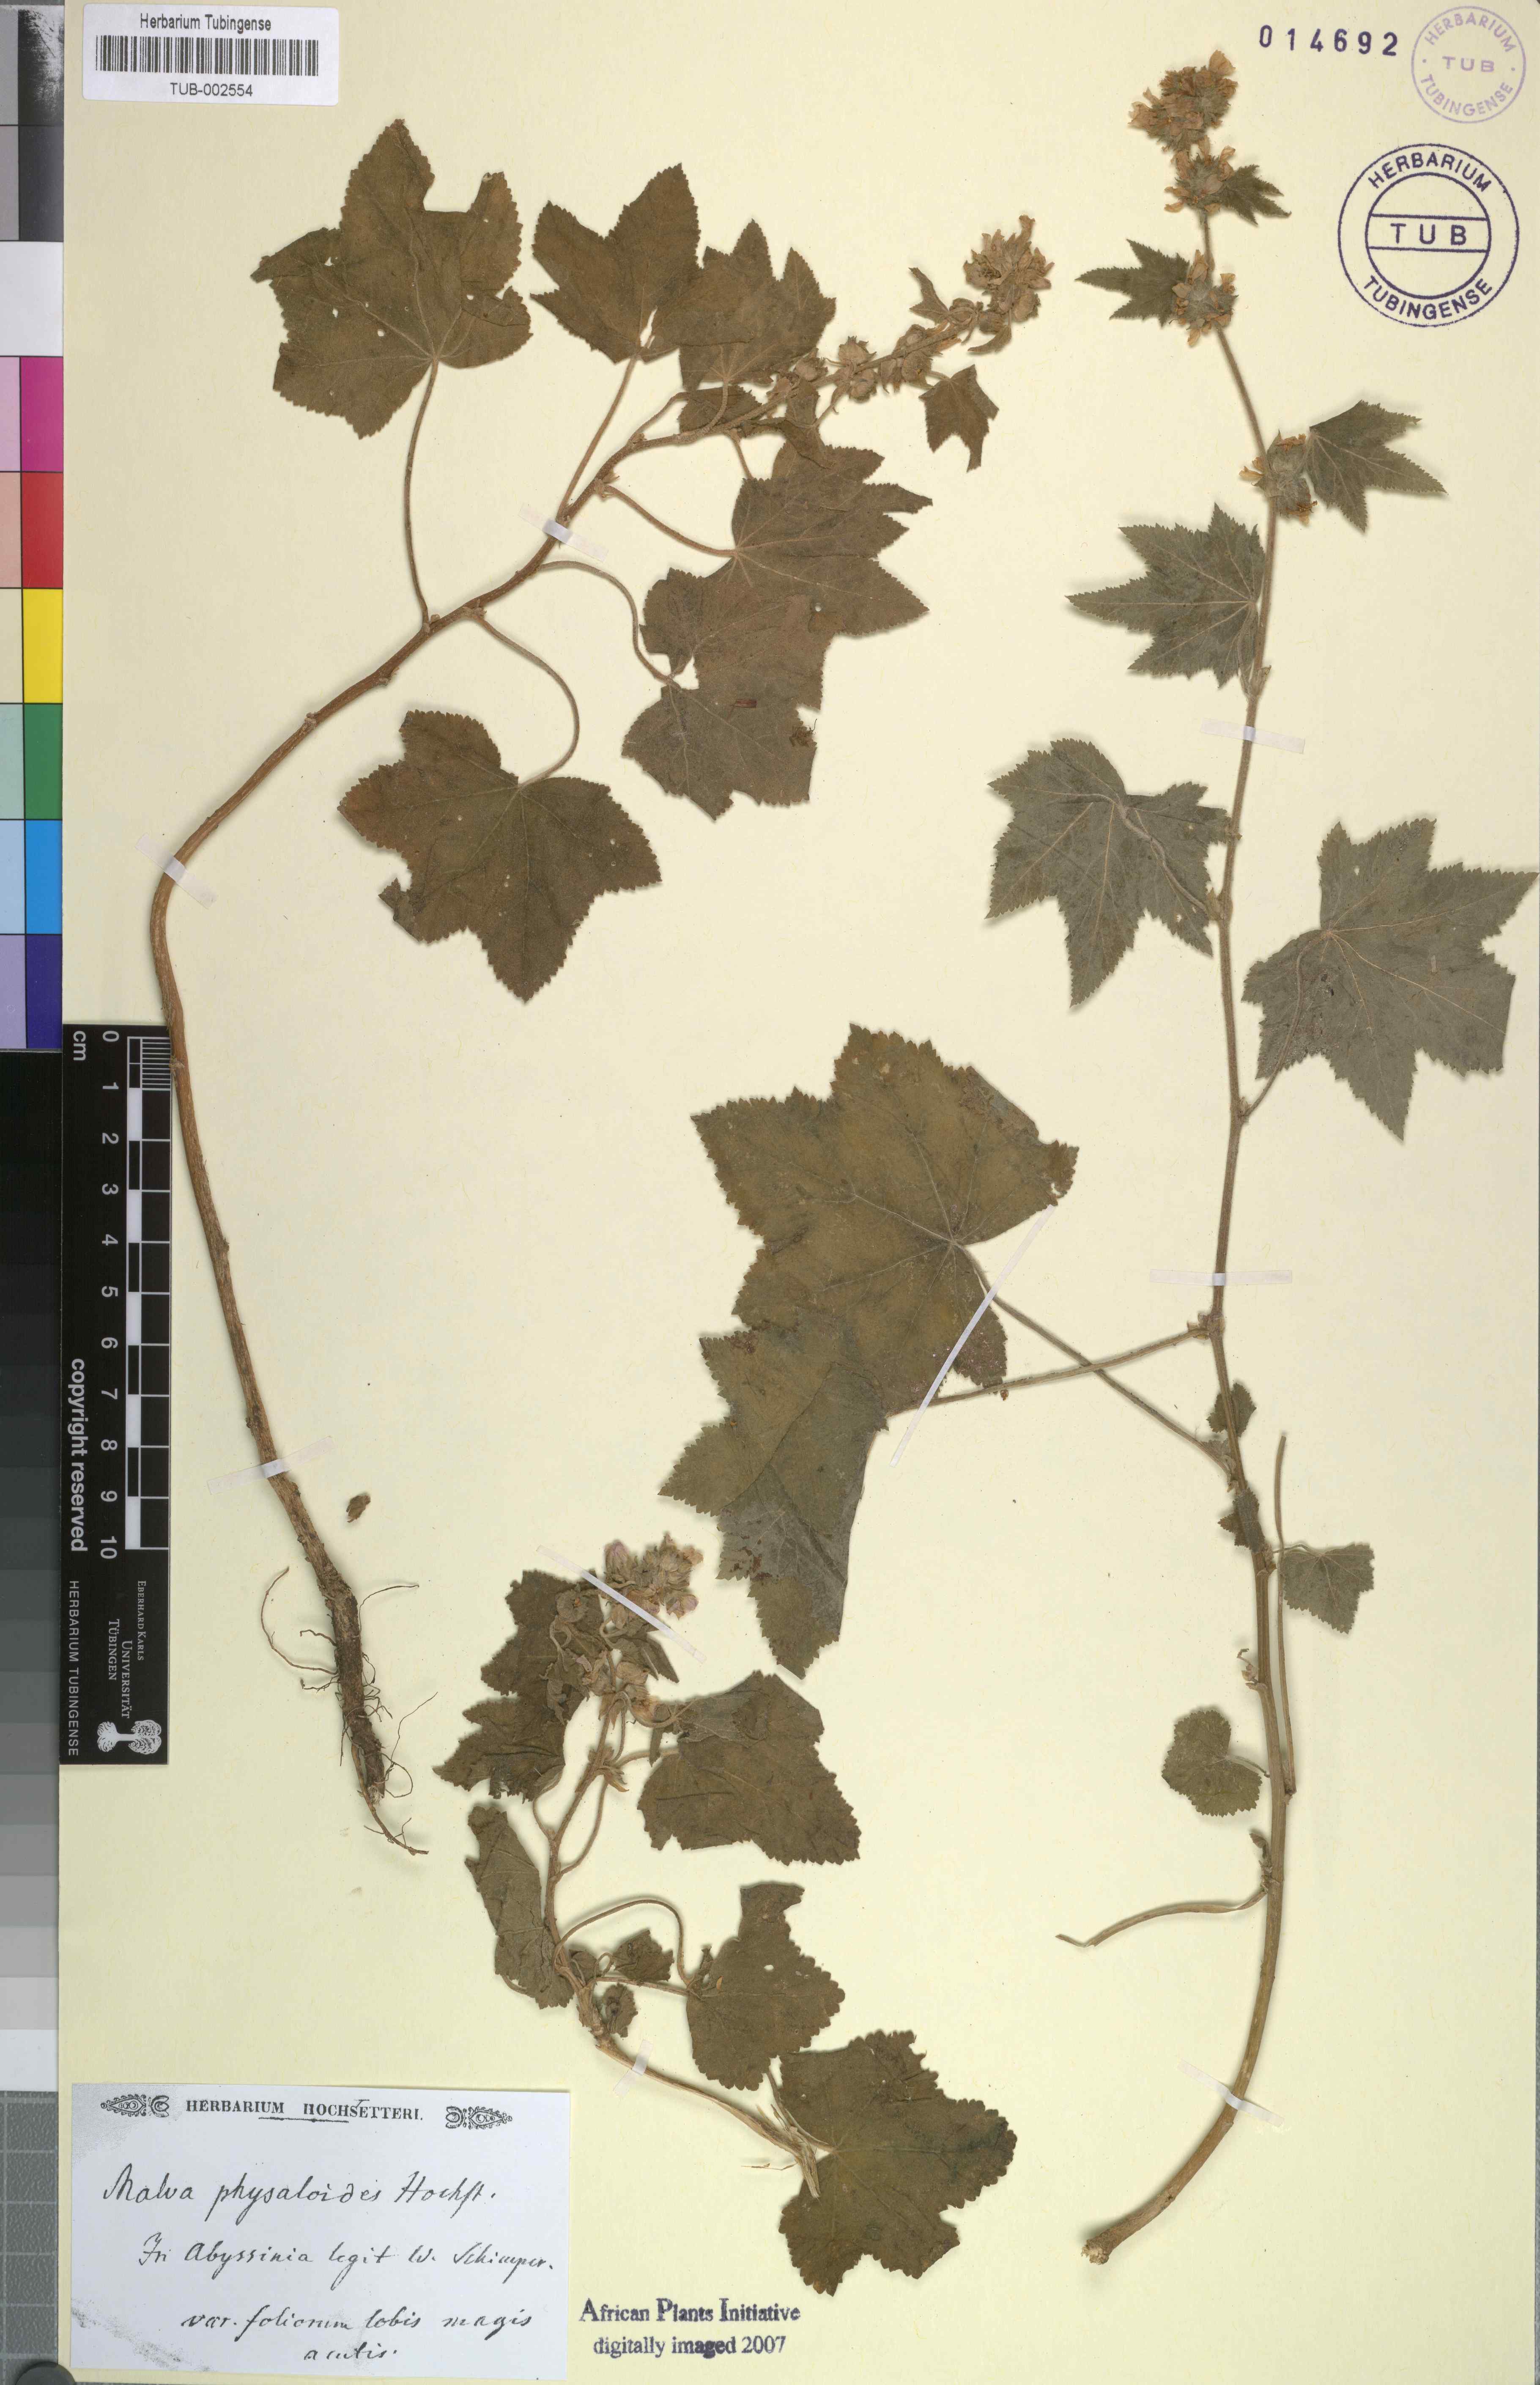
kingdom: Plantae
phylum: Tracheophyta
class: Magnoliopsida
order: Malvales
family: Malvaceae
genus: Malva
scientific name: Malva
